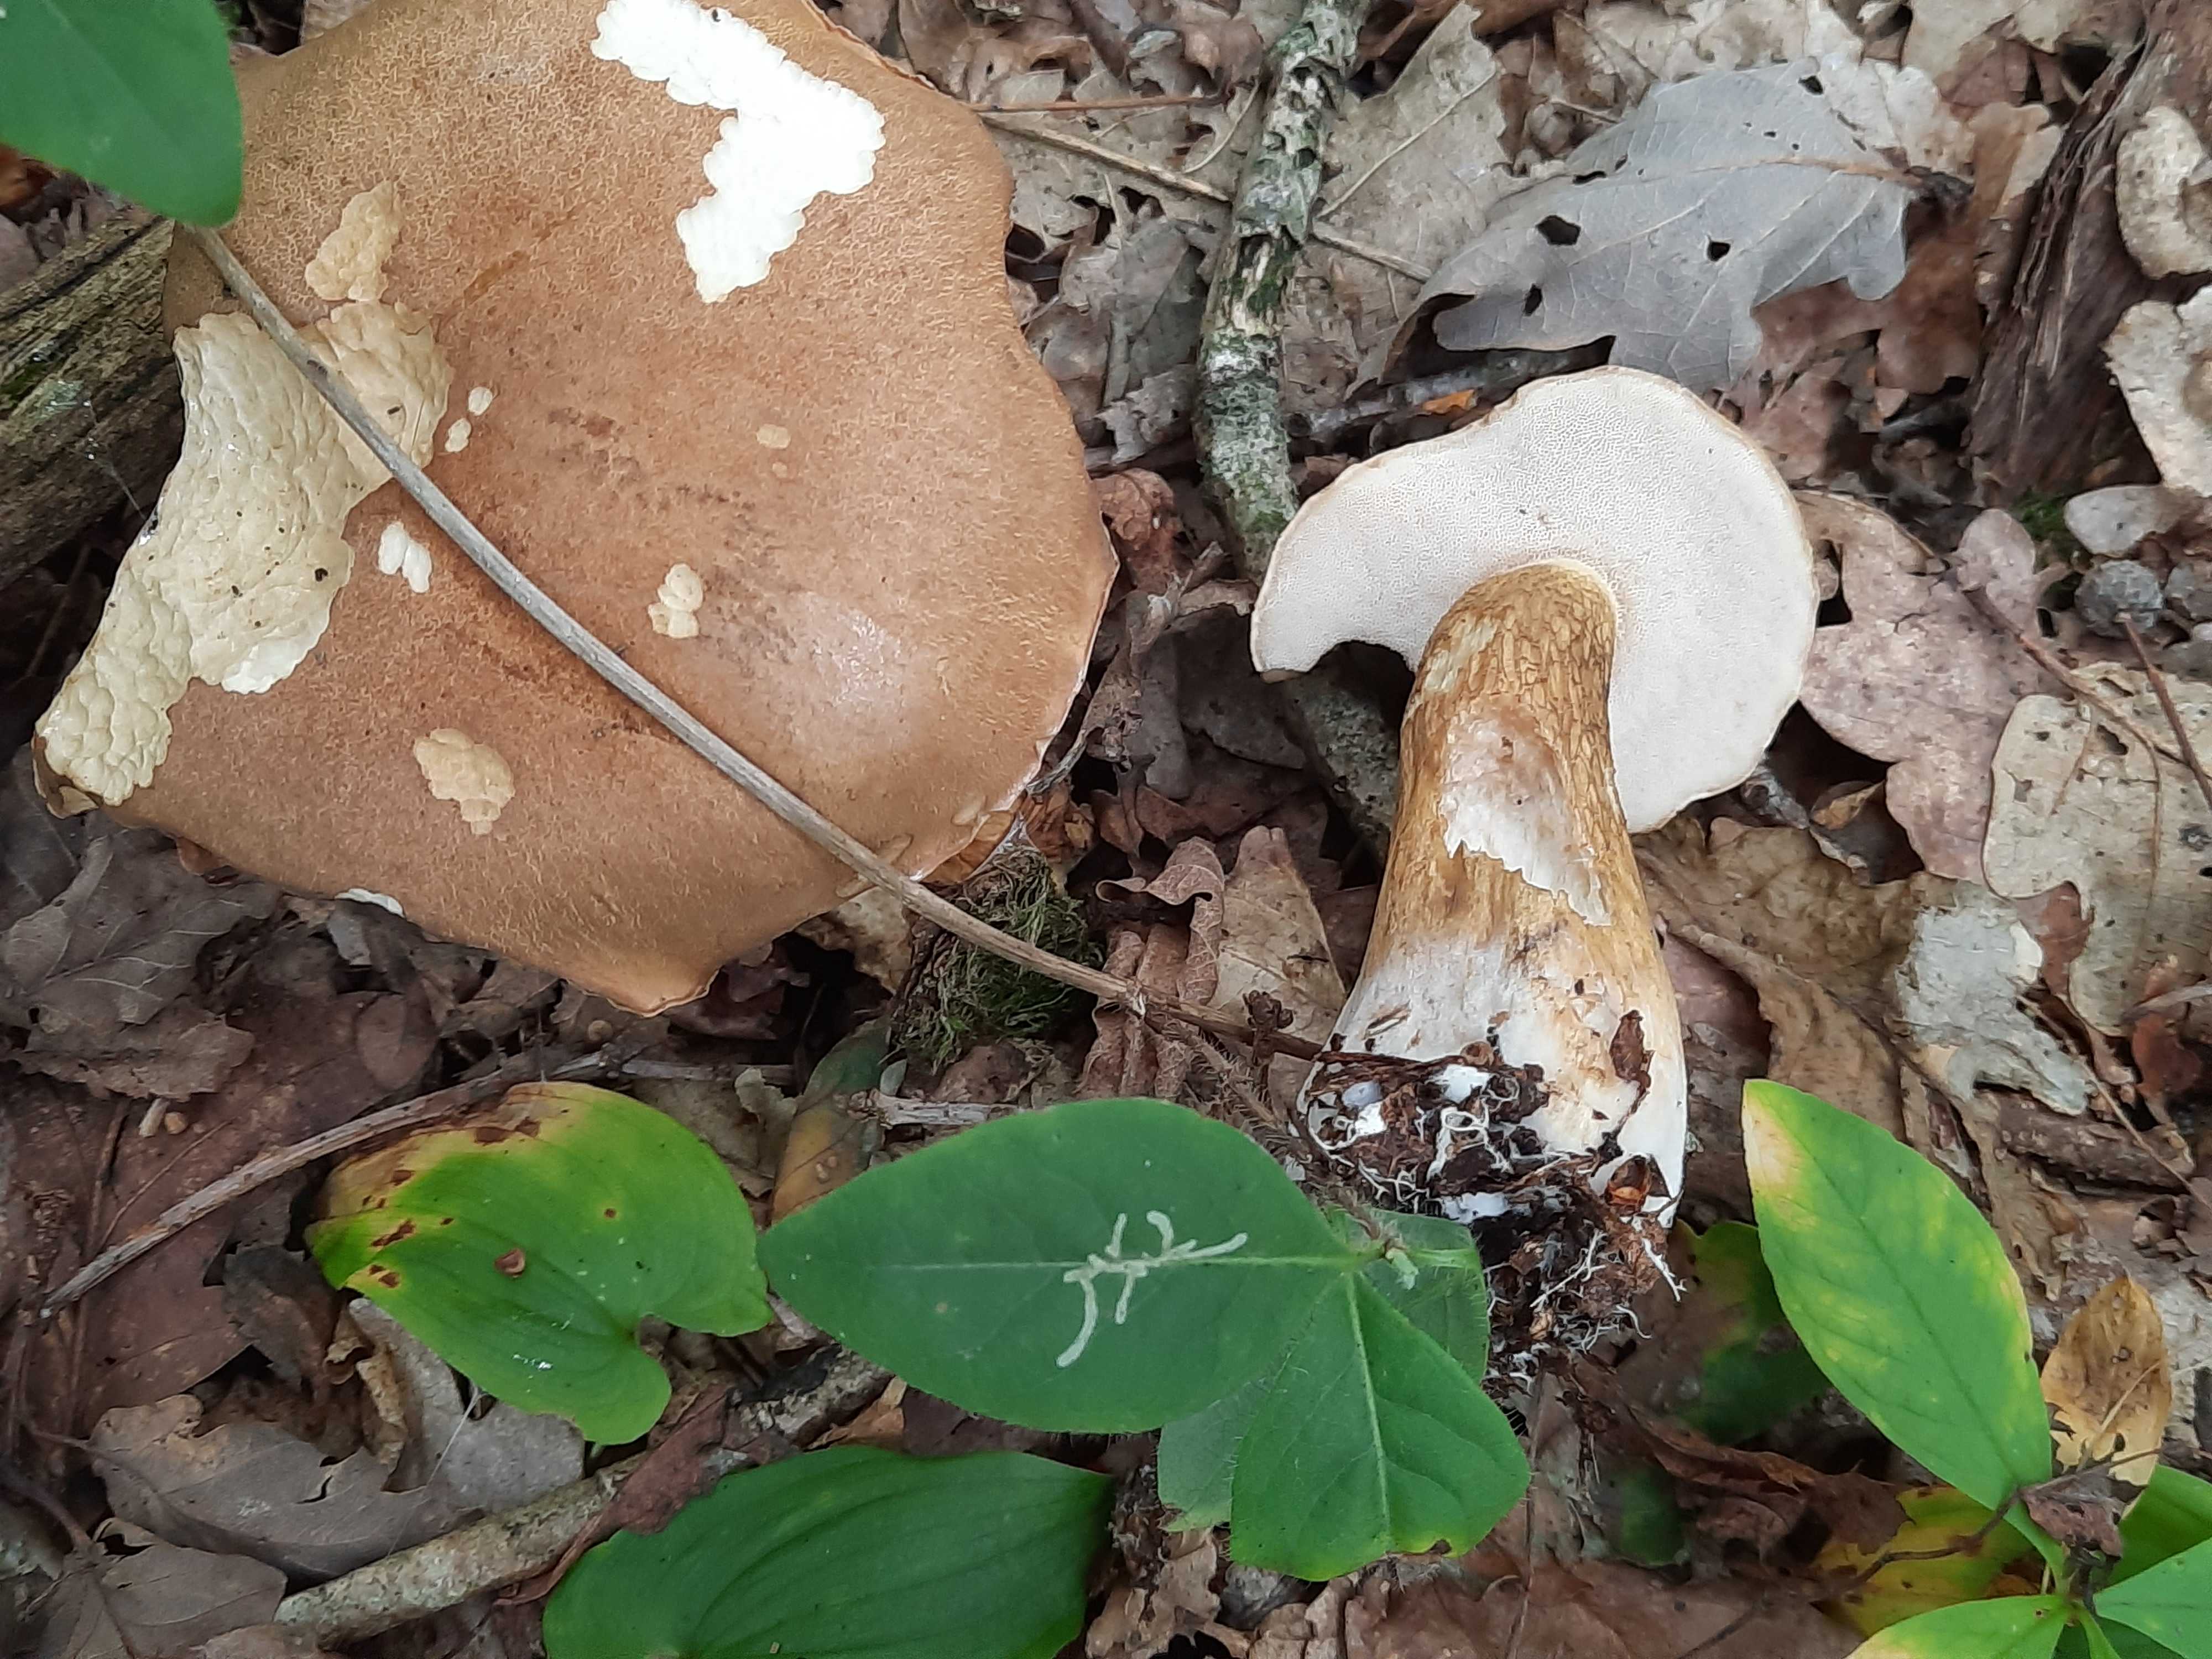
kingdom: Fungi
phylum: Basidiomycota
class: Agaricomycetes
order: Boletales
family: Boletaceae
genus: Tylopilus
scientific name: Tylopilus felleus
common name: galderørhat
